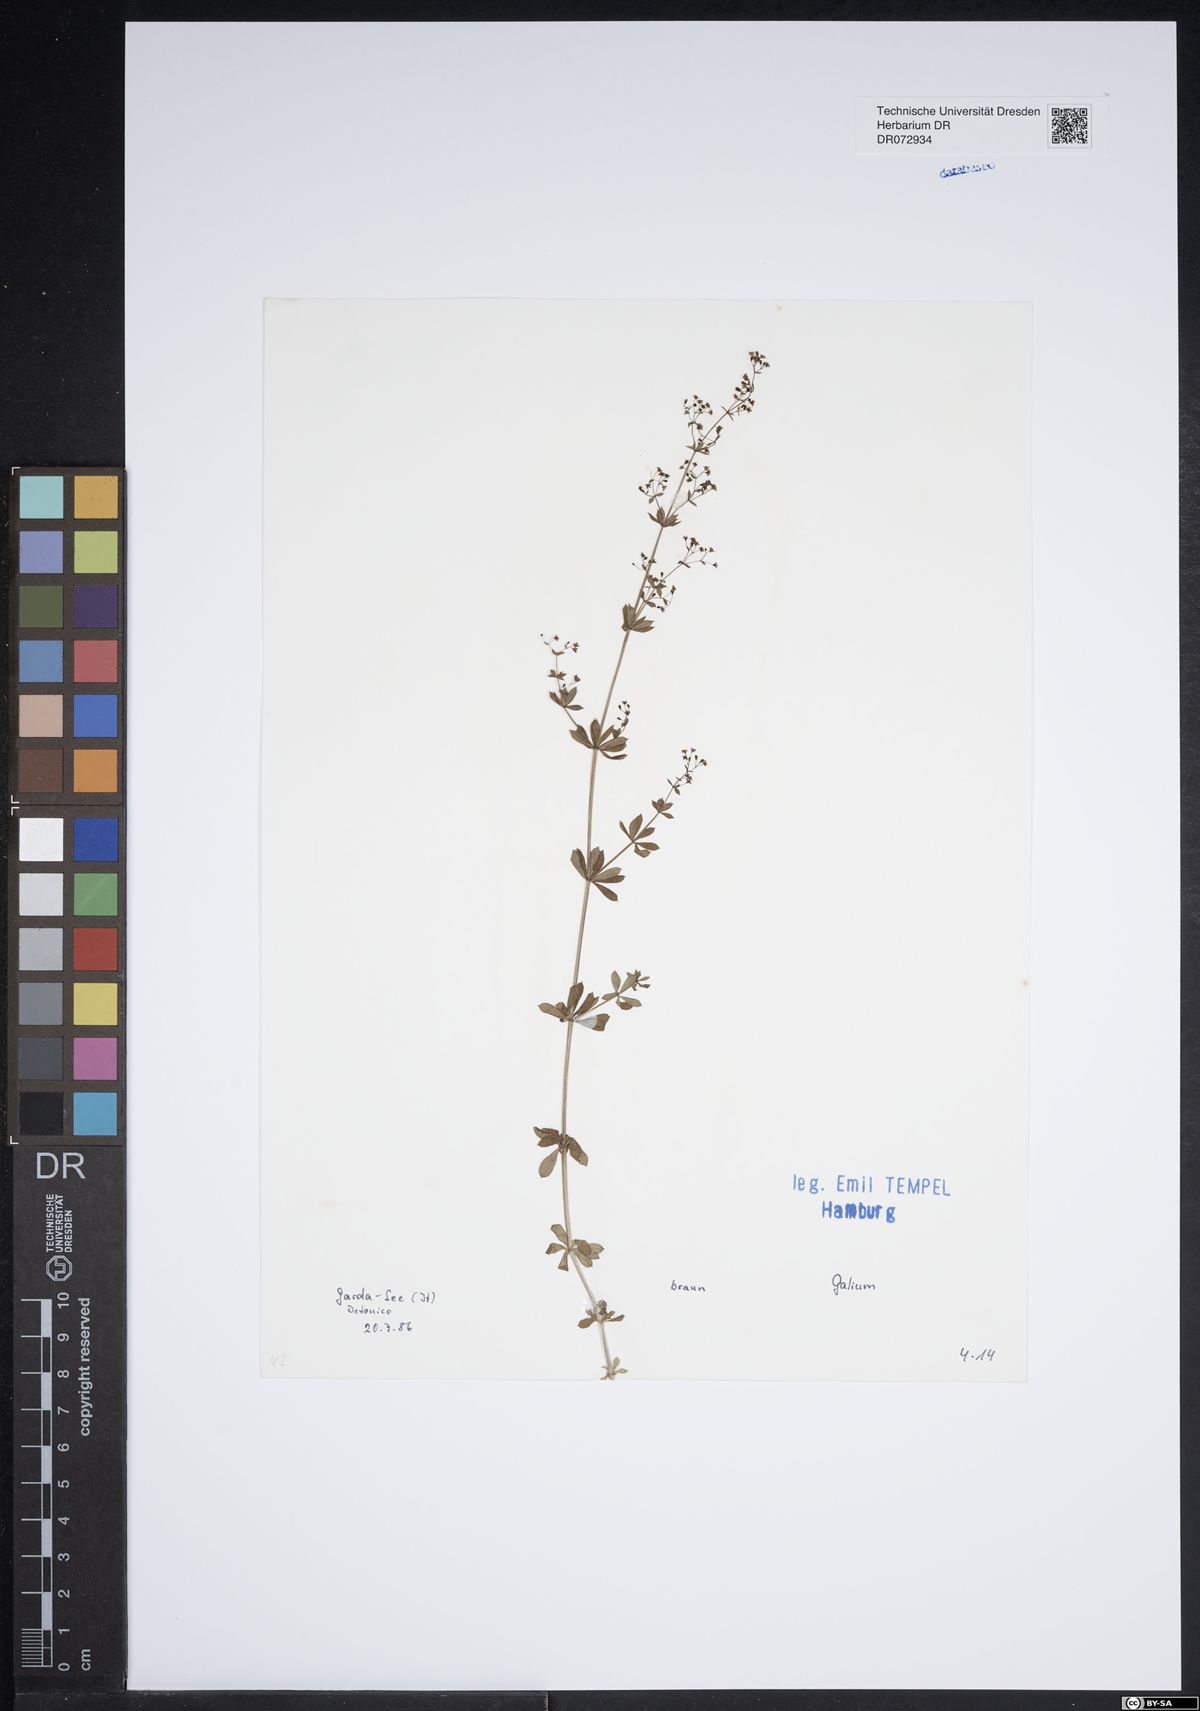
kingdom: Plantae
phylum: Tracheophyta
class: Magnoliopsida
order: Gentianales
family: Rubiaceae
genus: Galium
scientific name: Galium
